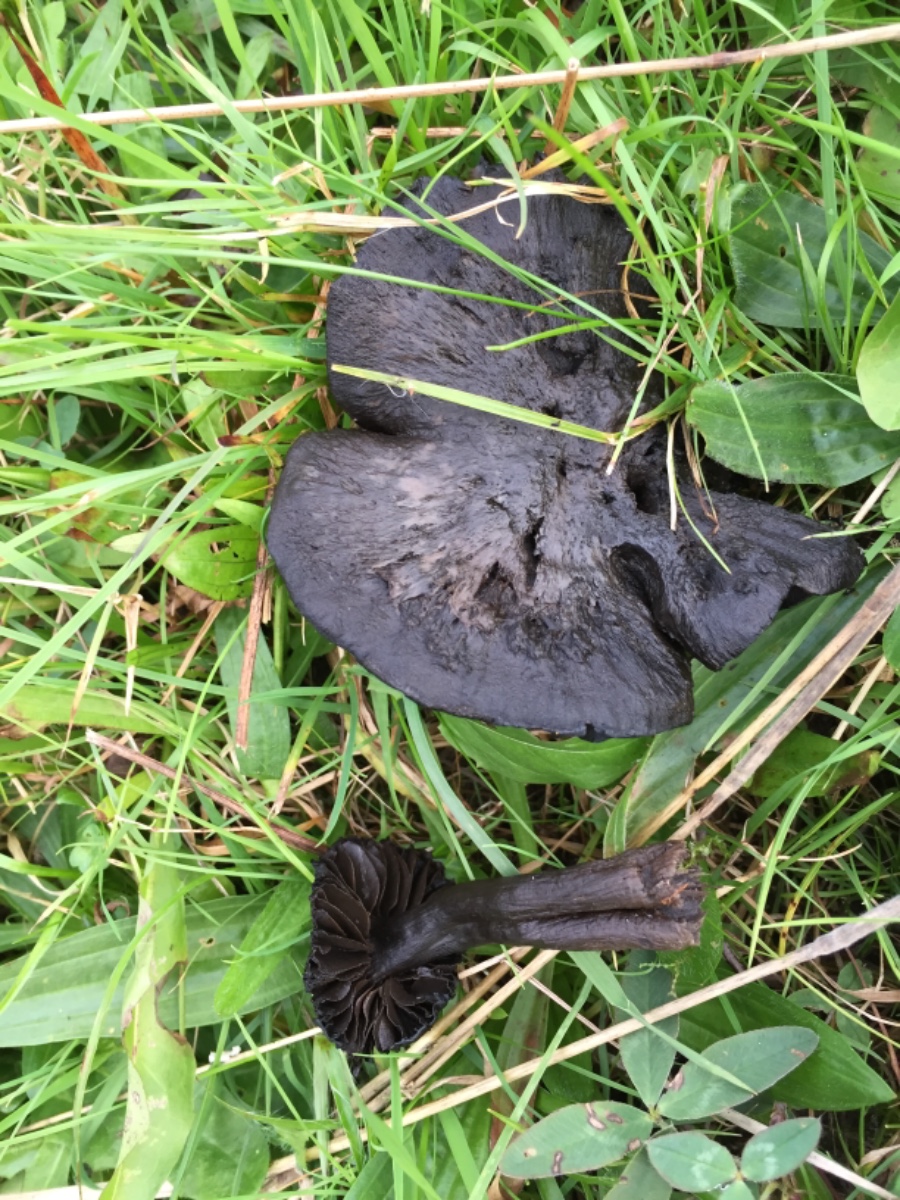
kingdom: Fungi
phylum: Basidiomycota
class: Agaricomycetes
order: Agaricales
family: Hygrophoraceae
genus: Neohygrocybe
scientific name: Neohygrocybe ovina
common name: rødmende vokshat
